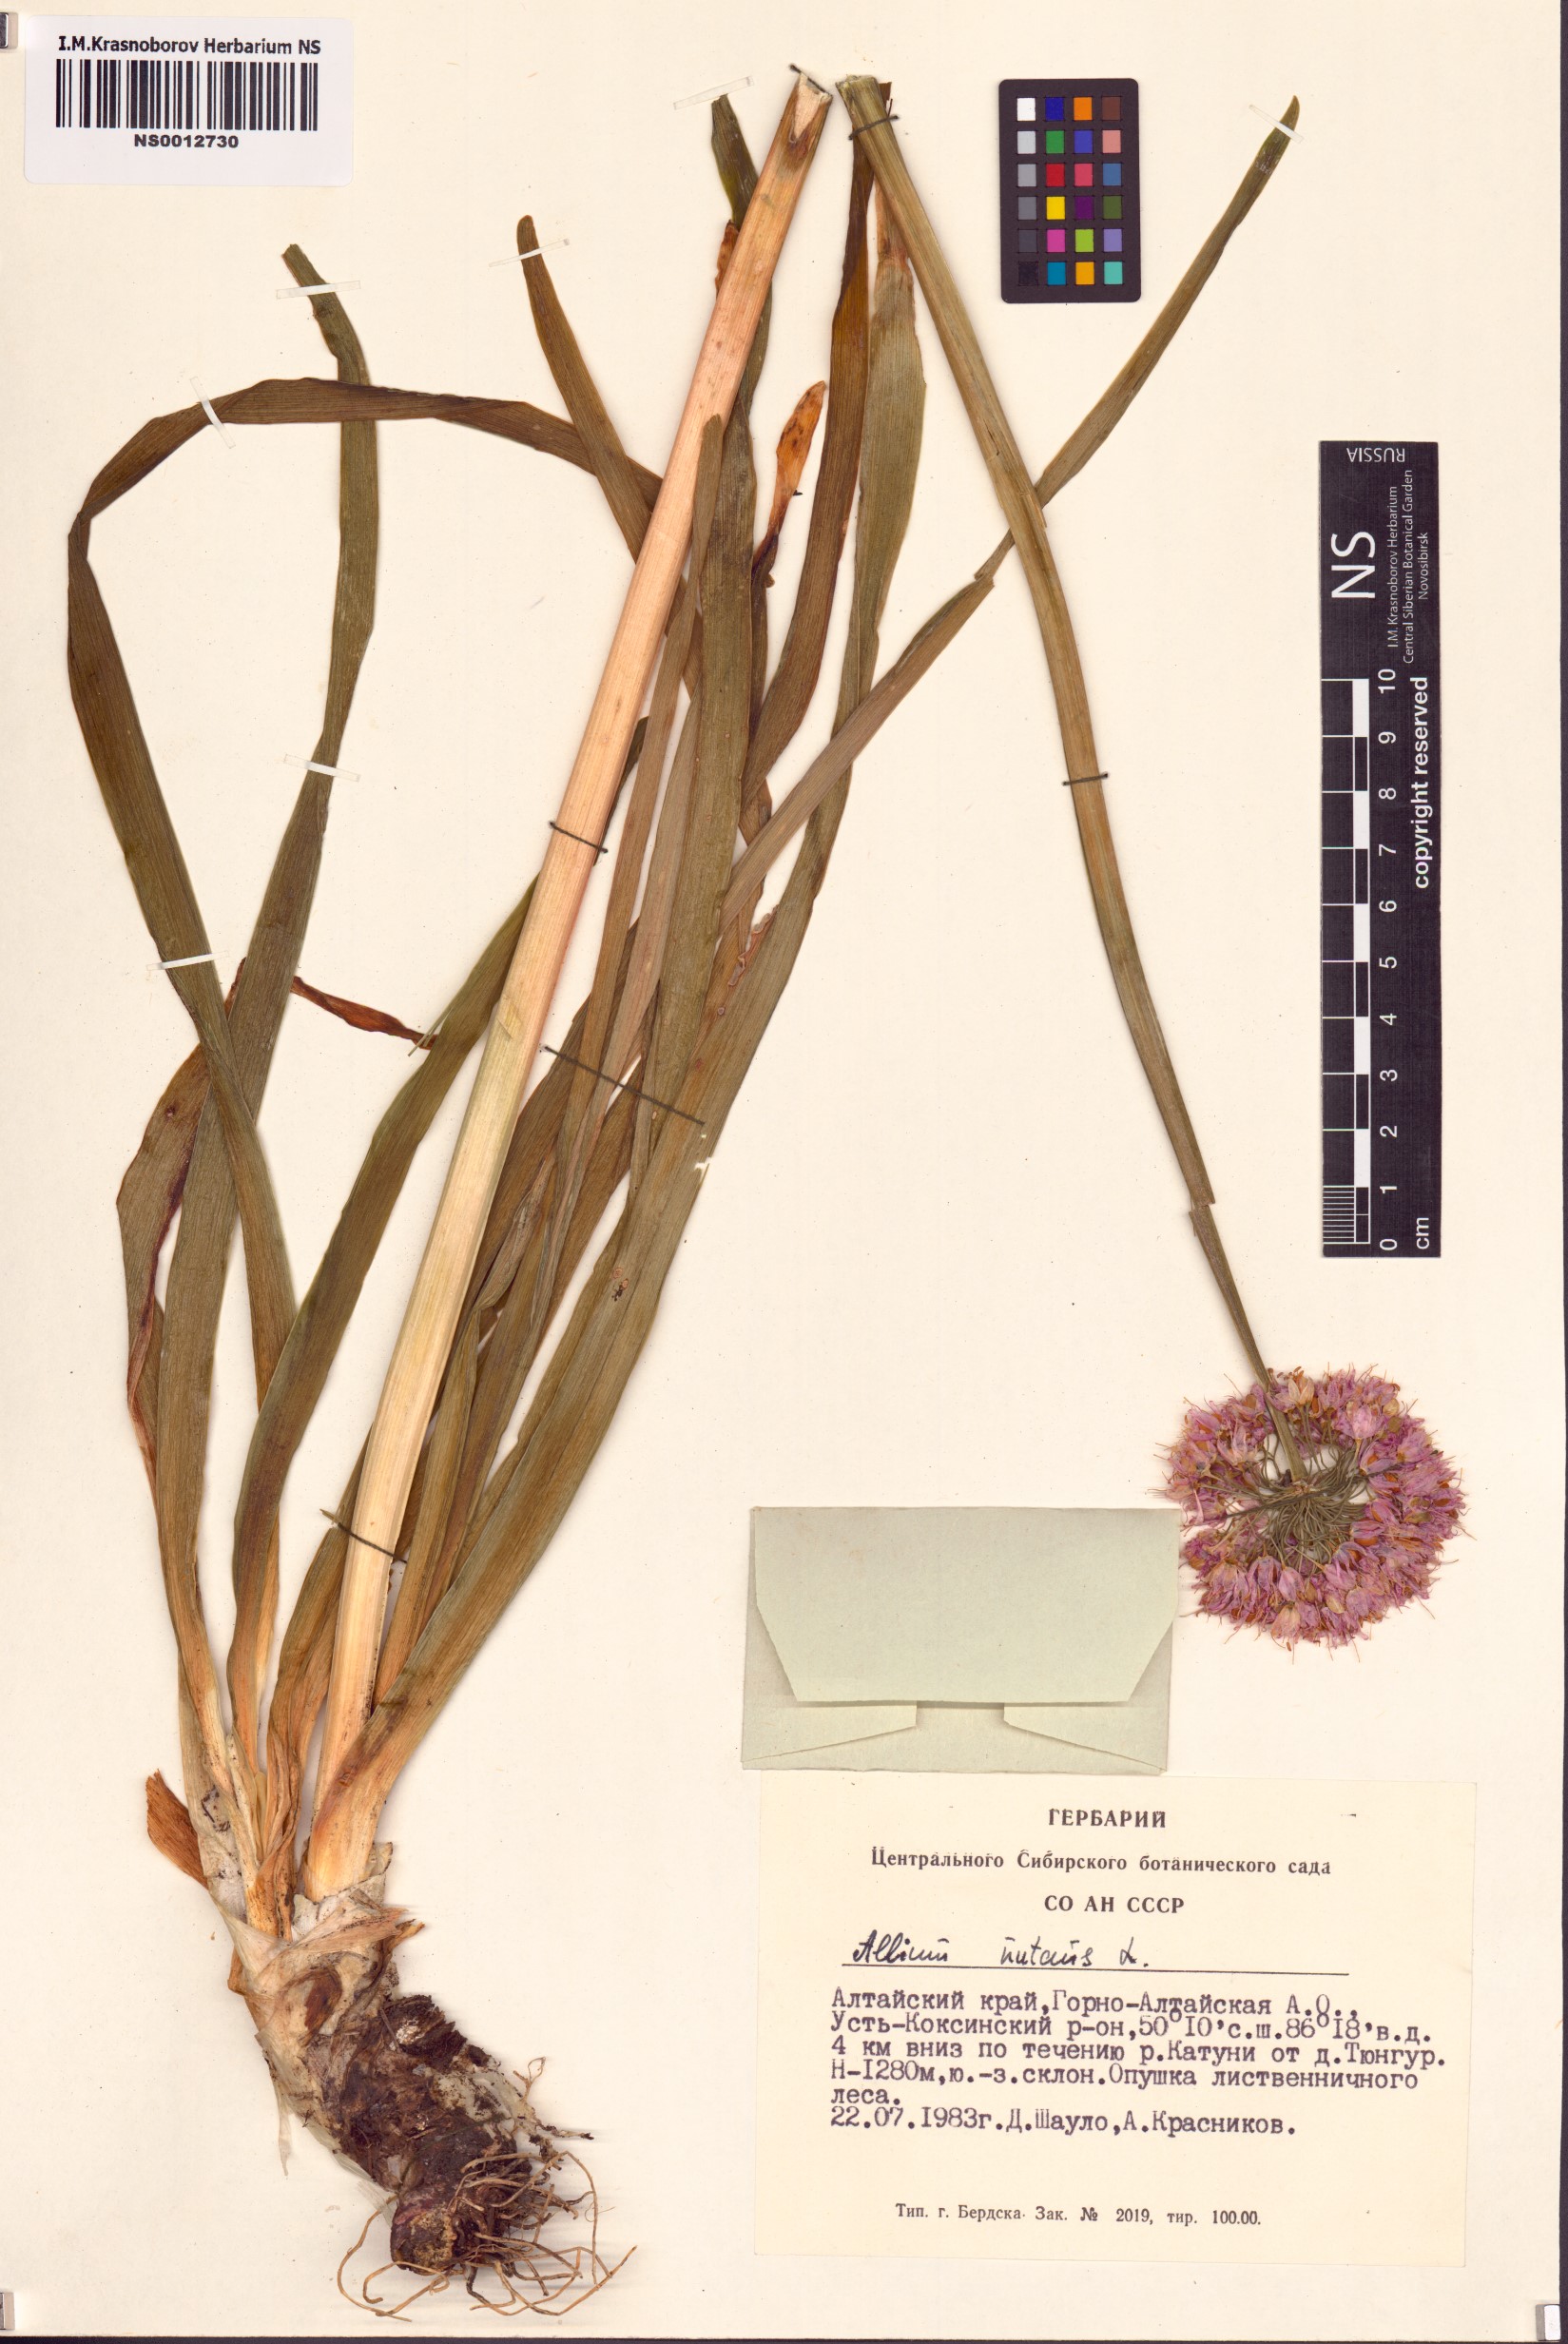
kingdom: Plantae
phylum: Tracheophyta
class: Liliopsida
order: Asparagales
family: Amaryllidaceae
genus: Allium
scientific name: Allium nutans
